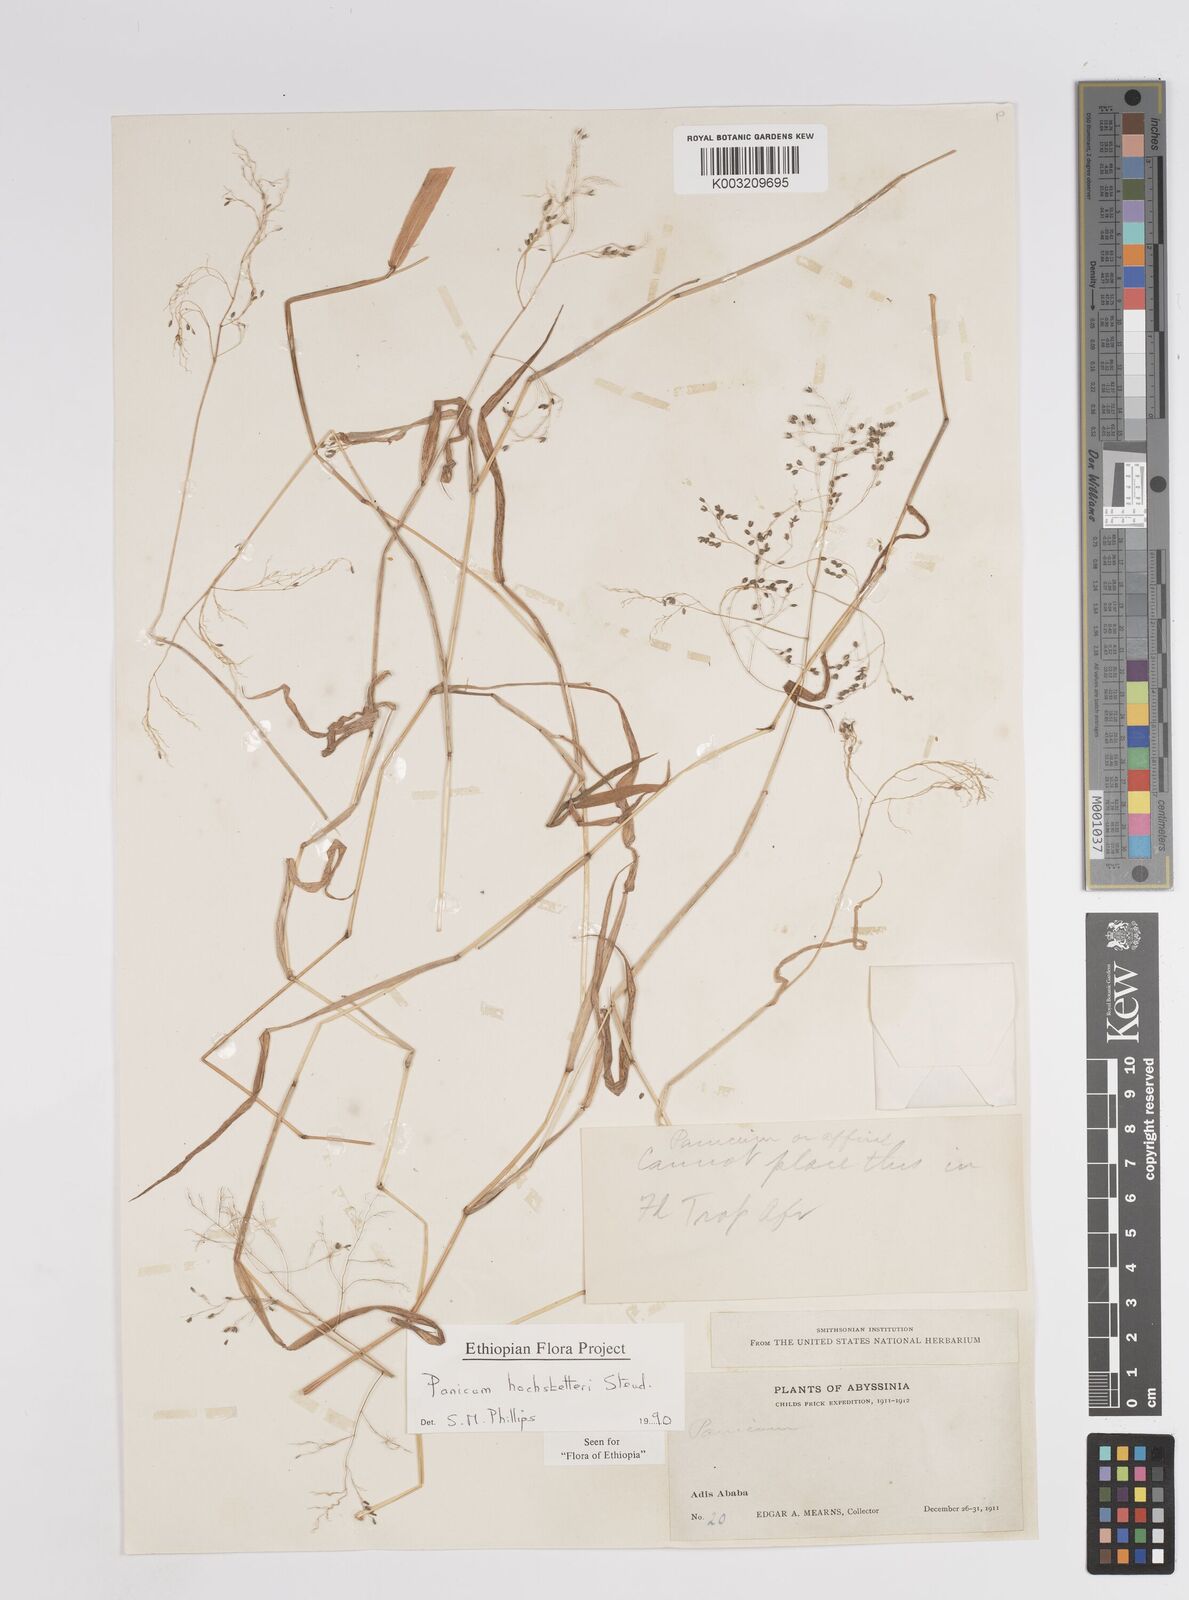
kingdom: Plantae
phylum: Tracheophyta
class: Liliopsida
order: Poales
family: Poaceae
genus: Panicum
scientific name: Panicum hochstetteri
